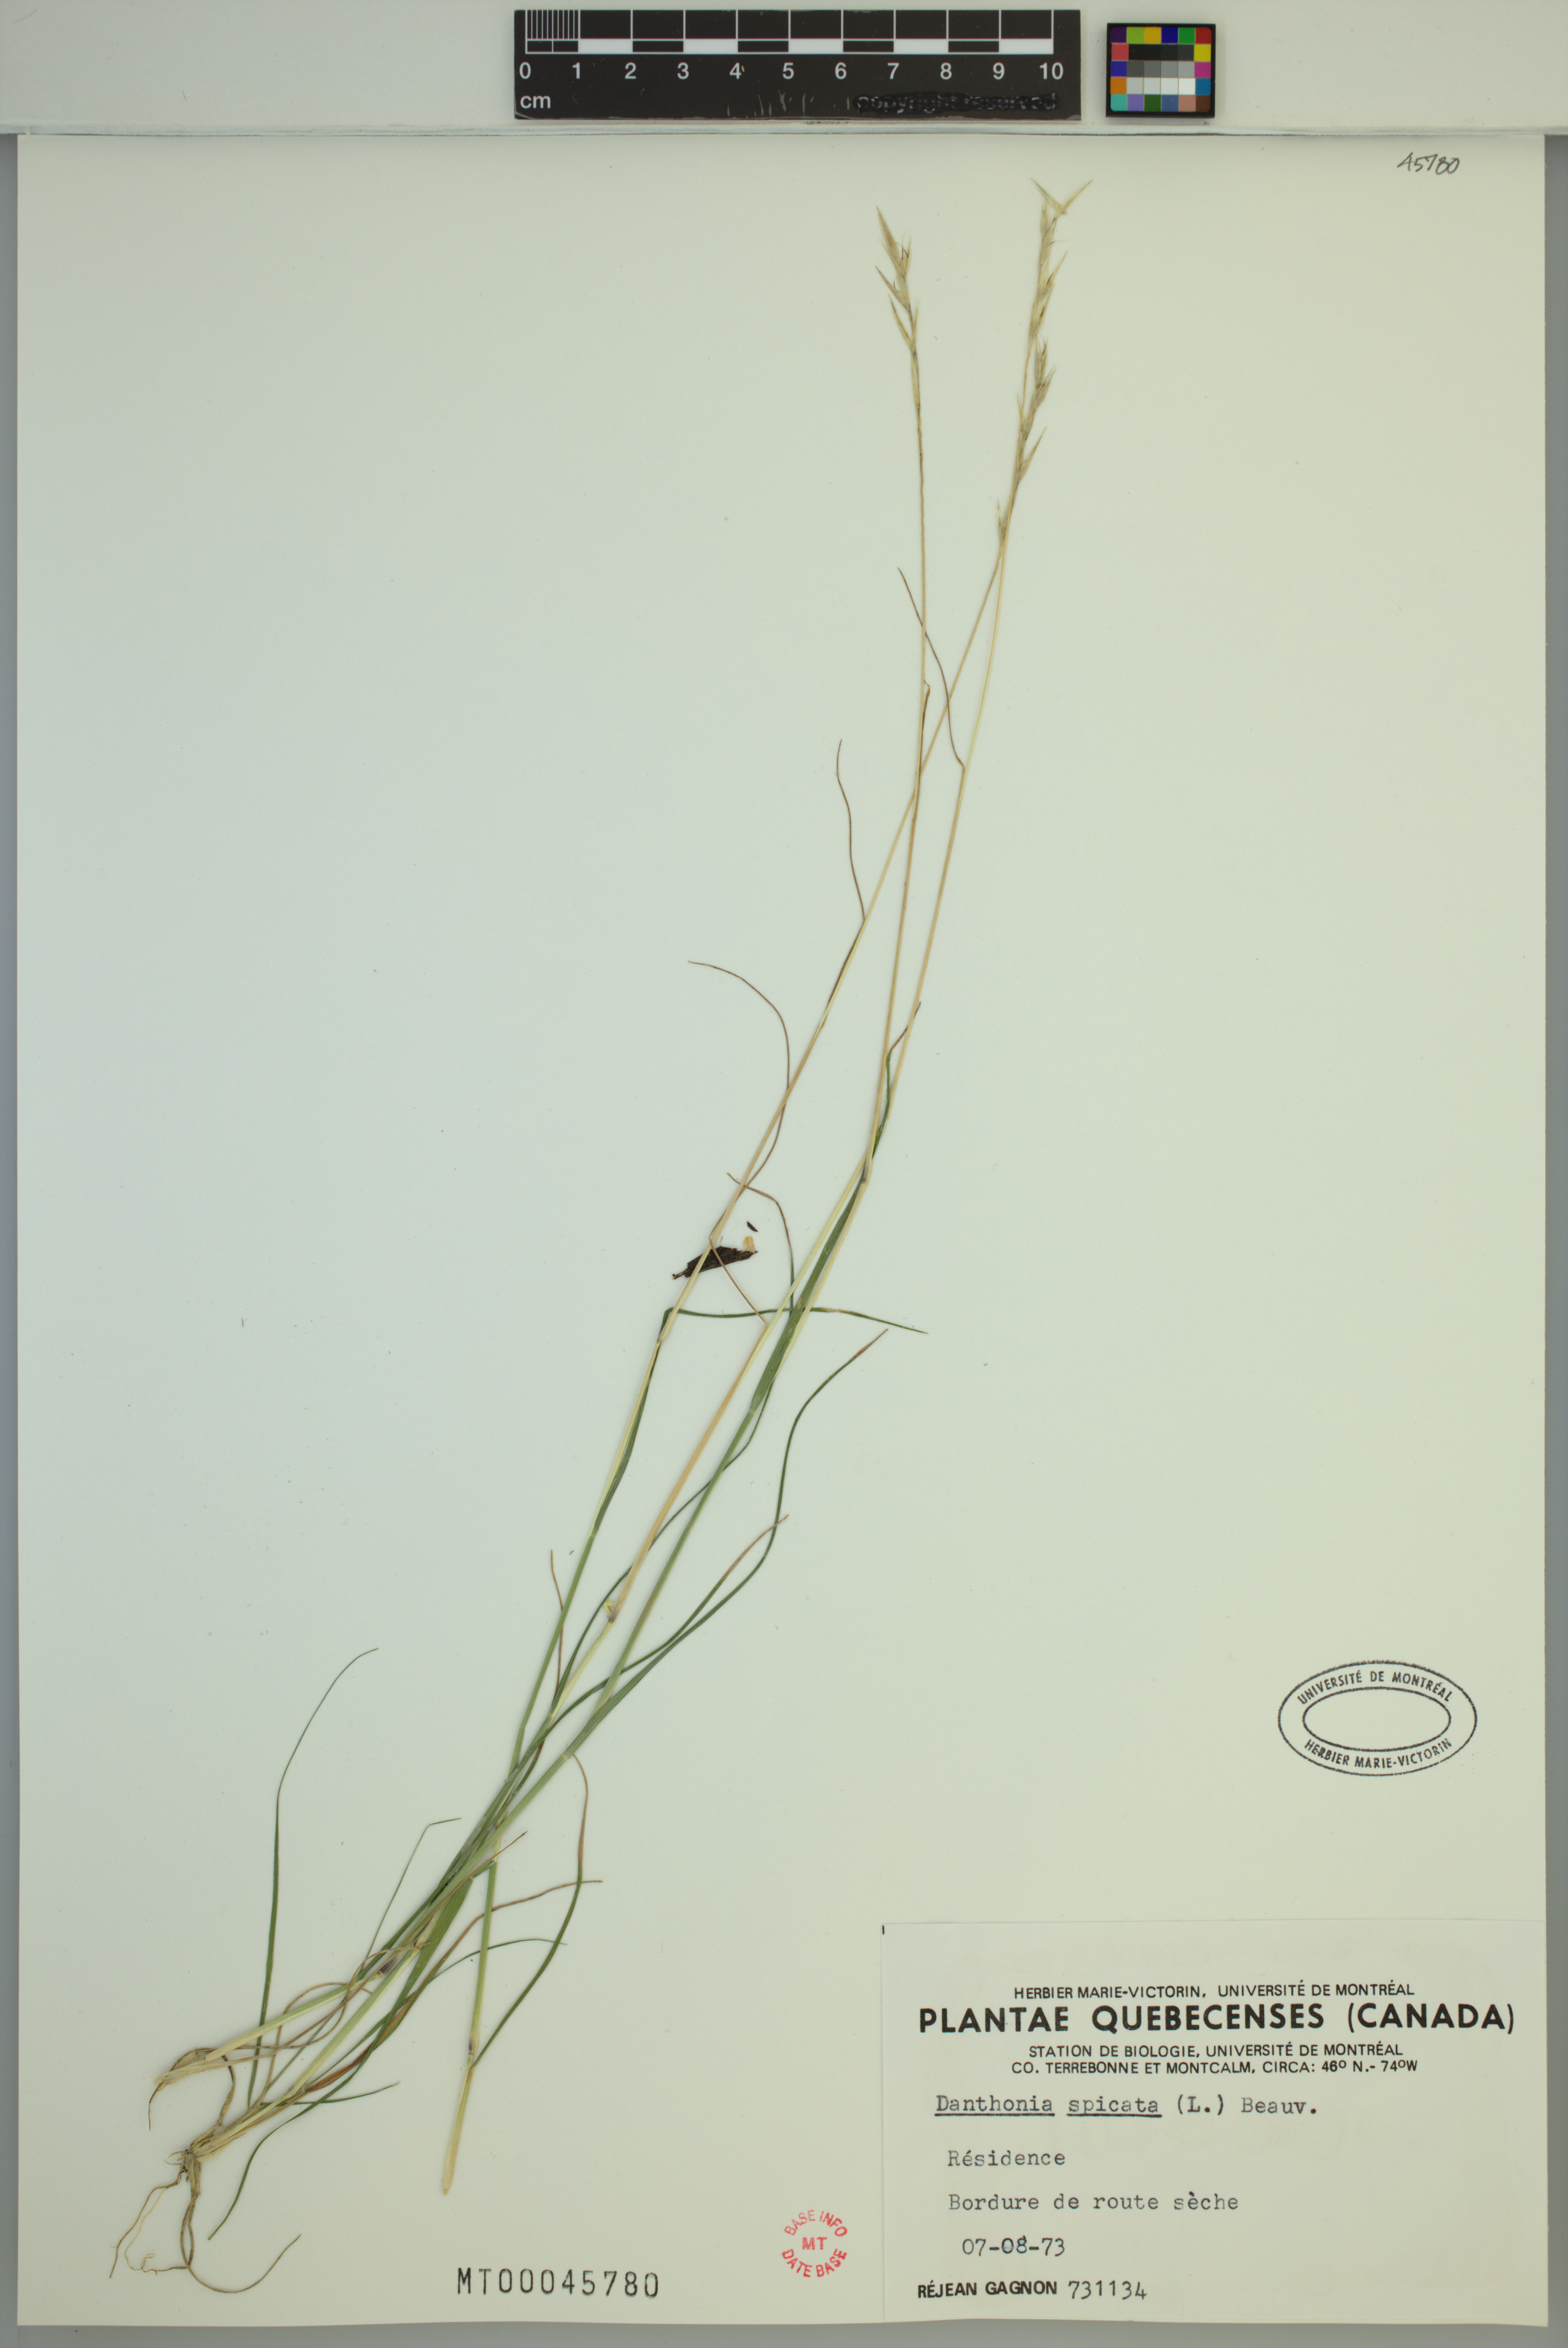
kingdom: Plantae
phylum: Tracheophyta
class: Liliopsida
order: Poales
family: Poaceae
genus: Danthonia
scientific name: Danthonia spicata
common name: Common wild oatgrass
